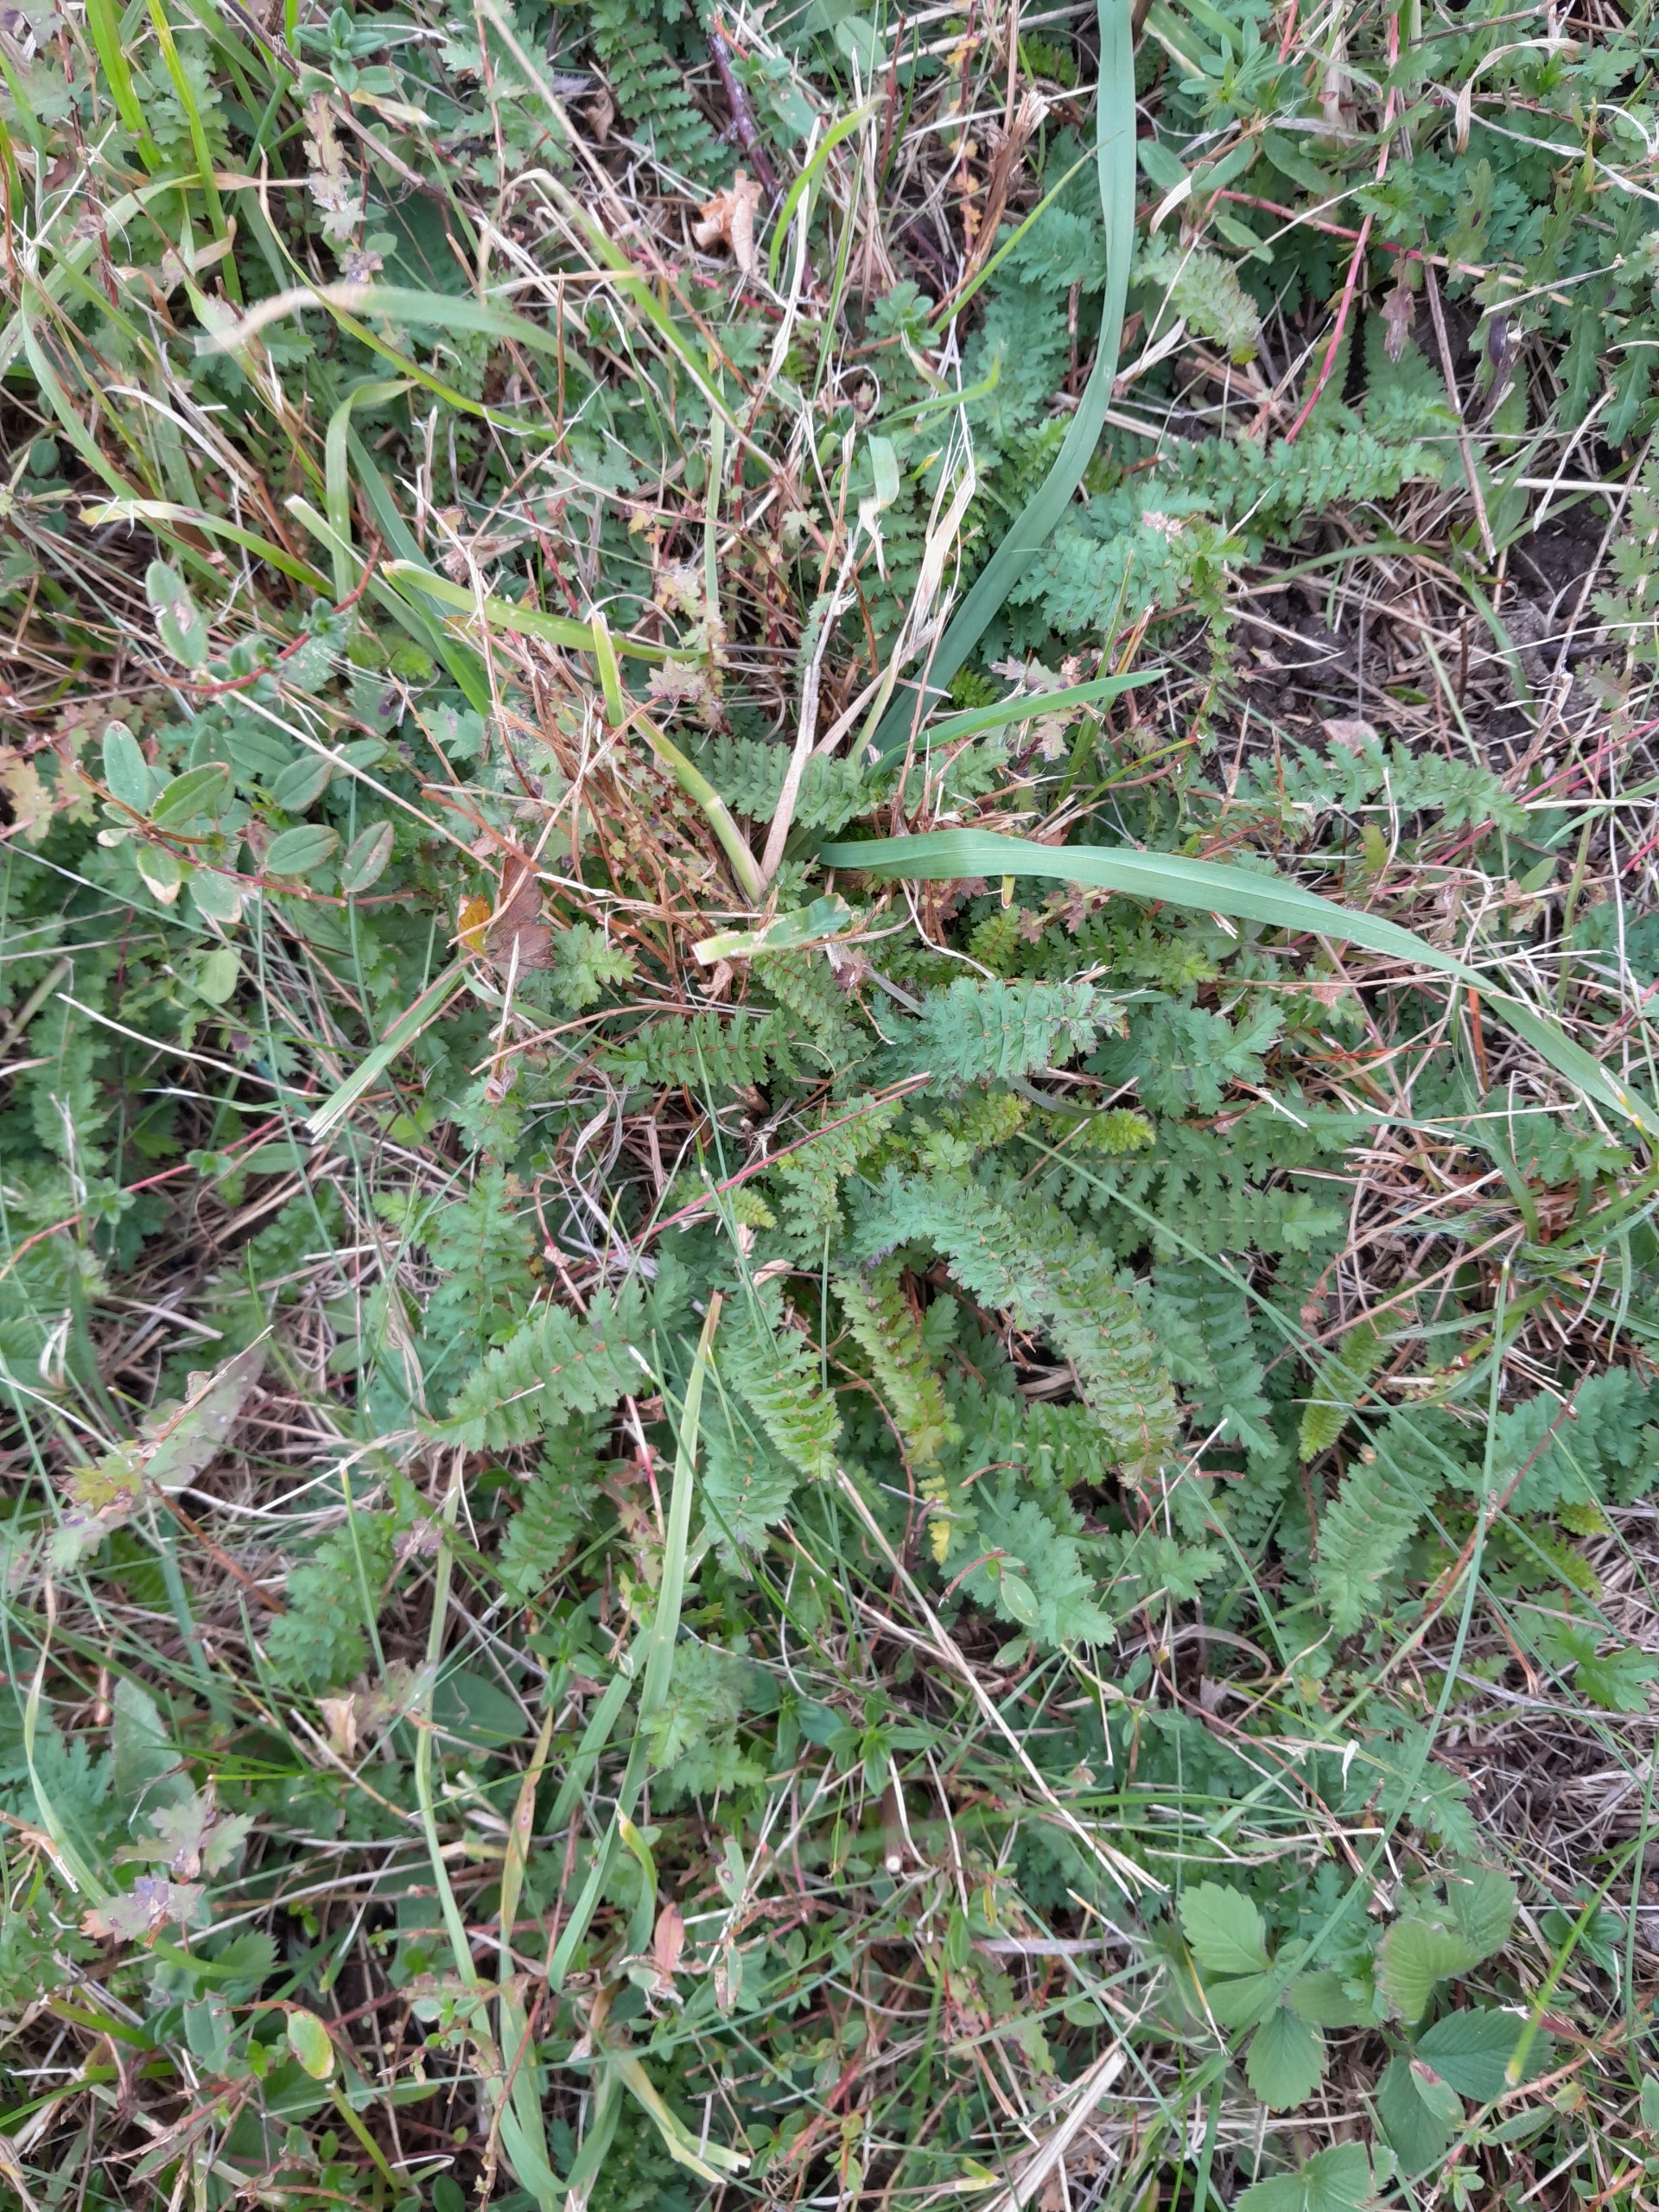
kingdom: Plantae
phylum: Tracheophyta
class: Magnoliopsida
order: Rosales
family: Rosaceae
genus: Filipendula
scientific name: Filipendula vulgaris
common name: Knoldet mjødurt
